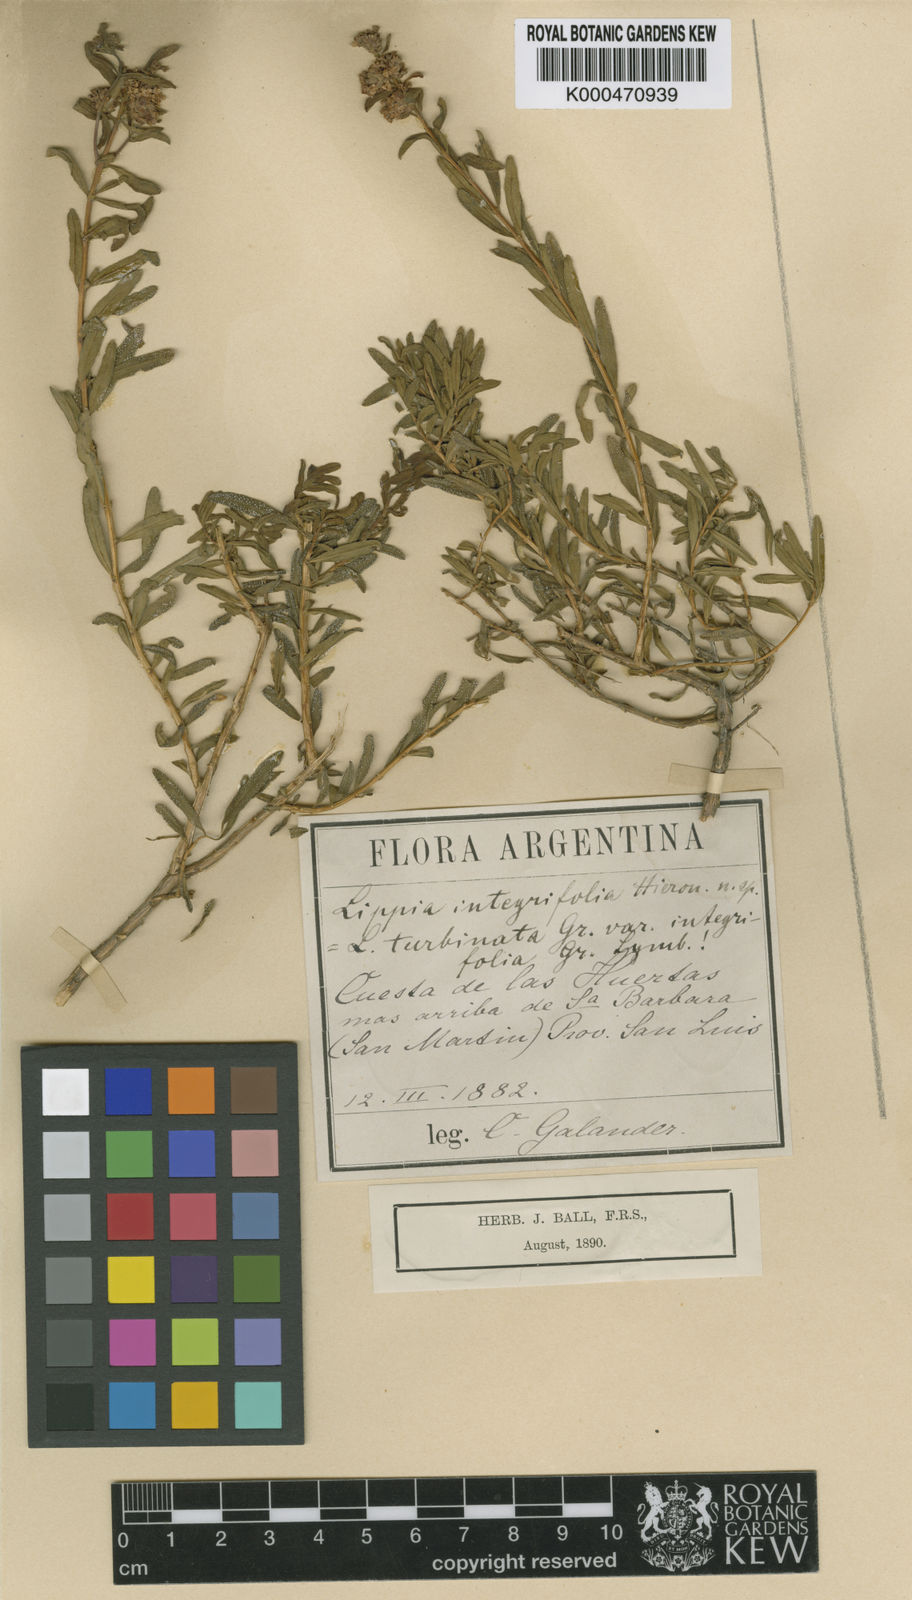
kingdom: Plantae
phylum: Tracheophyta
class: Magnoliopsida
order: Lamiales
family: Verbenaceae
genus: Lippia
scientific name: Lippia integrifolia
